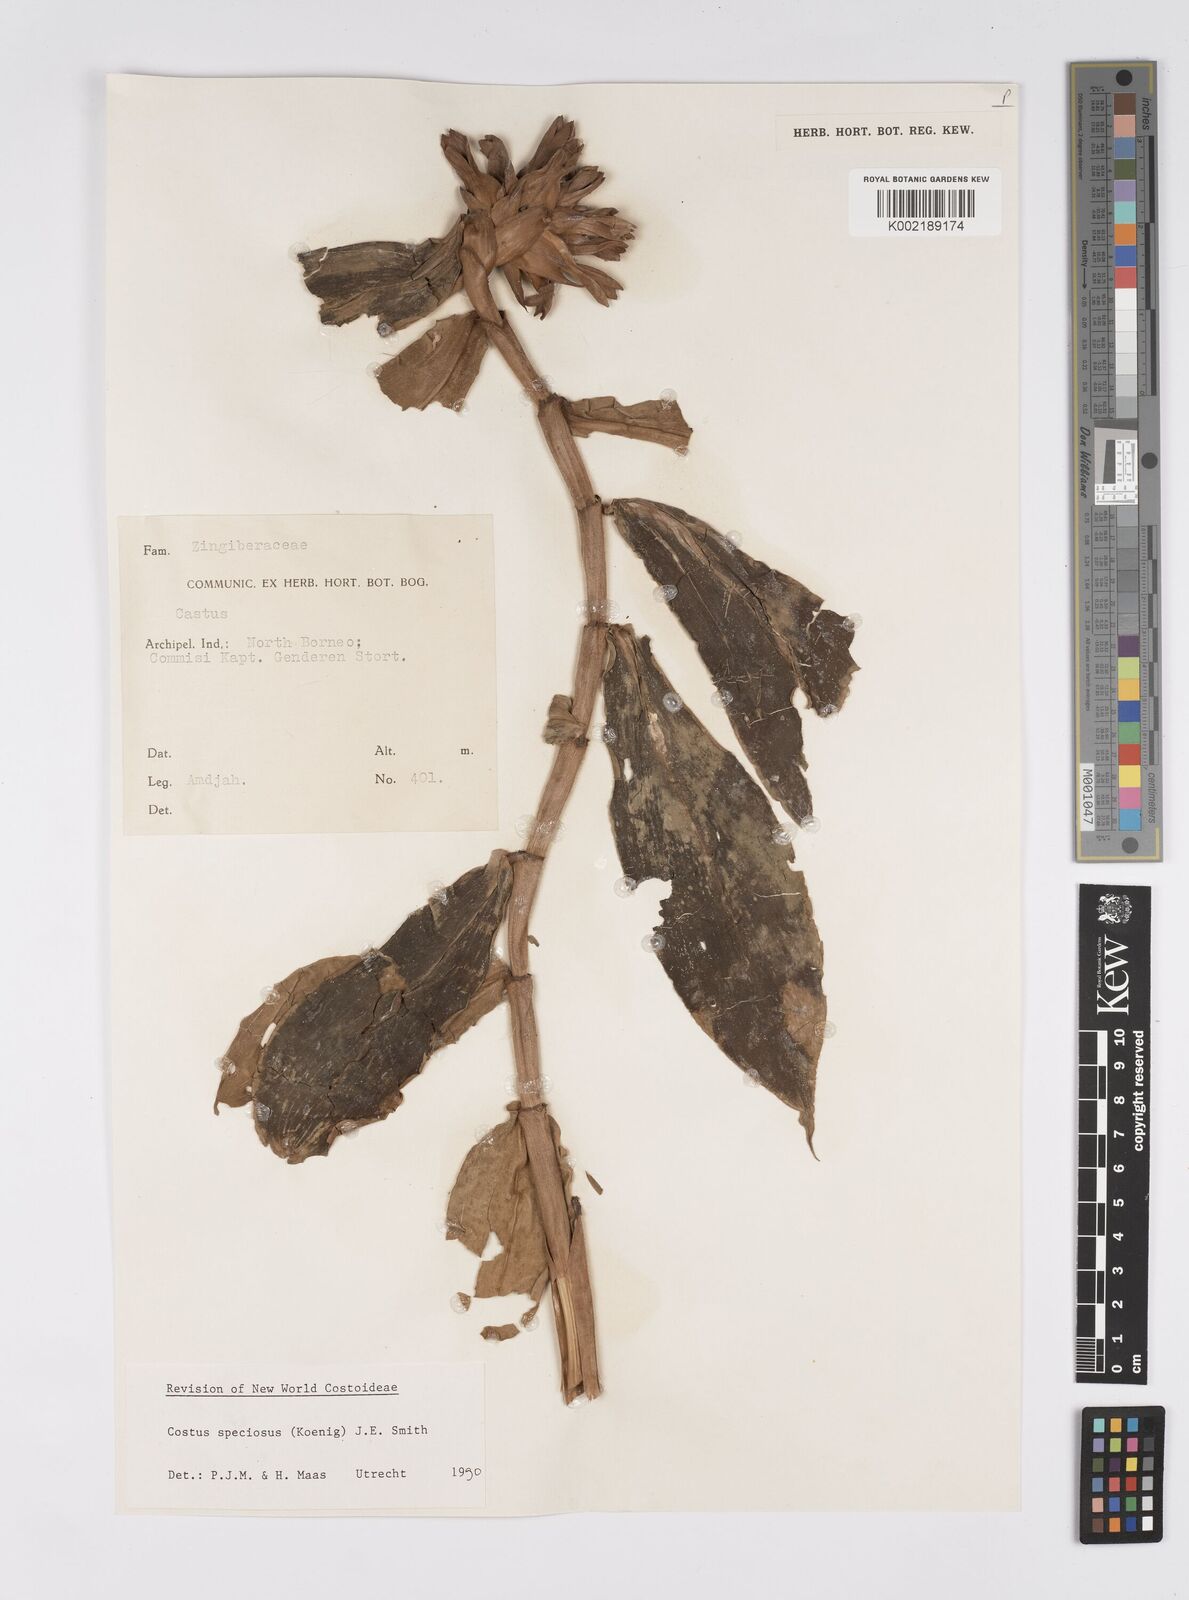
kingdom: Plantae
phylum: Tracheophyta
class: Liliopsida
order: Zingiberales
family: Costaceae
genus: Hellenia
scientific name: Hellenia speciosa
